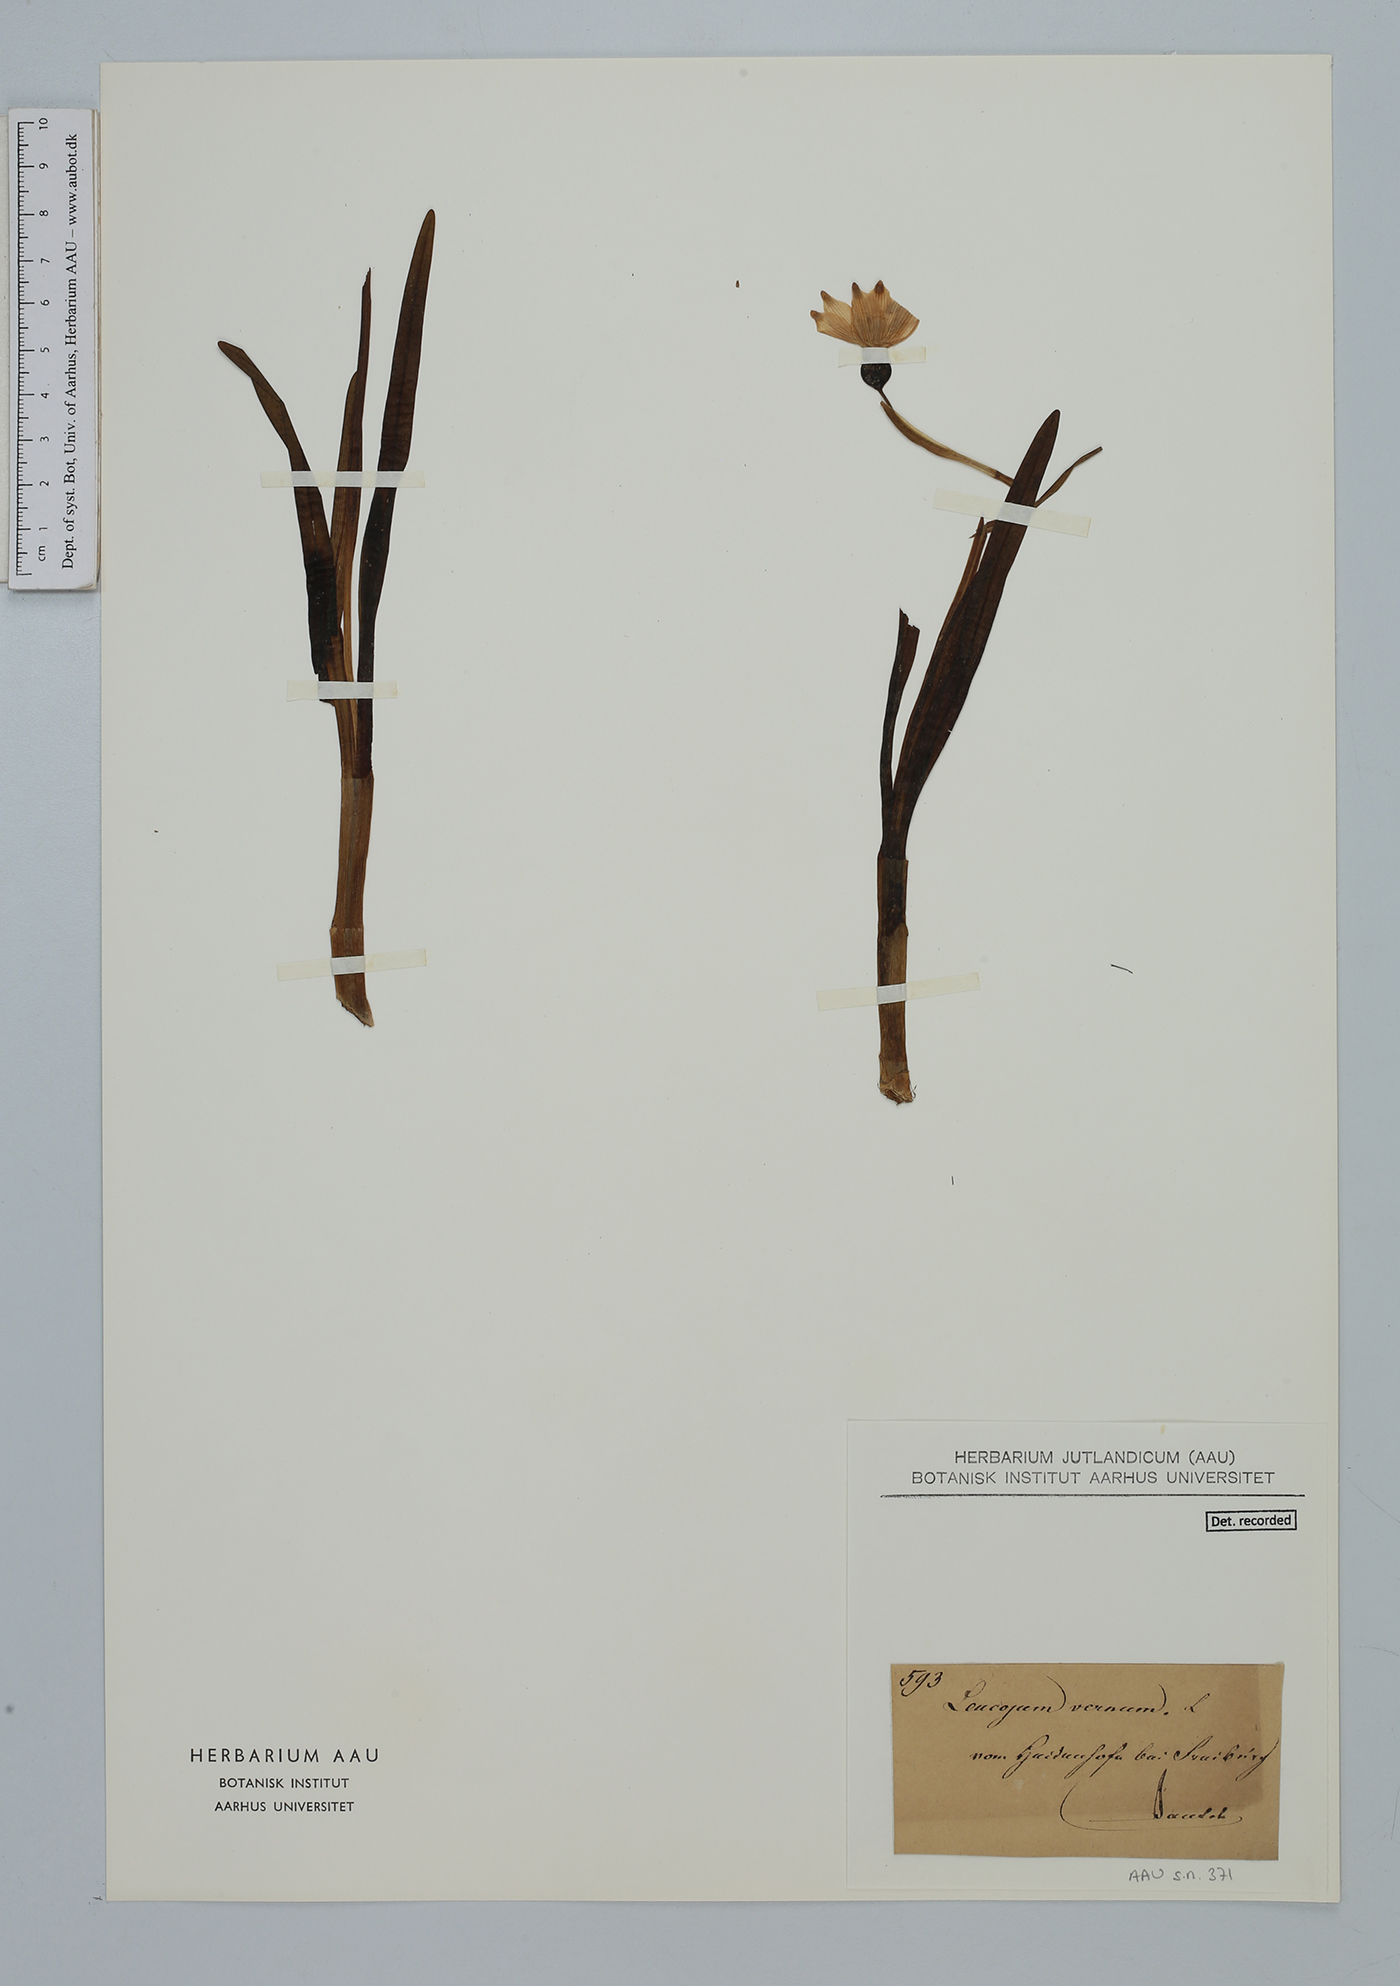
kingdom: Plantae
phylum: Tracheophyta
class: Liliopsida
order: Asparagales
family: Amaryllidaceae
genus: Leucojum
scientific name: Leucojum vernum
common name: Spring snowflake
